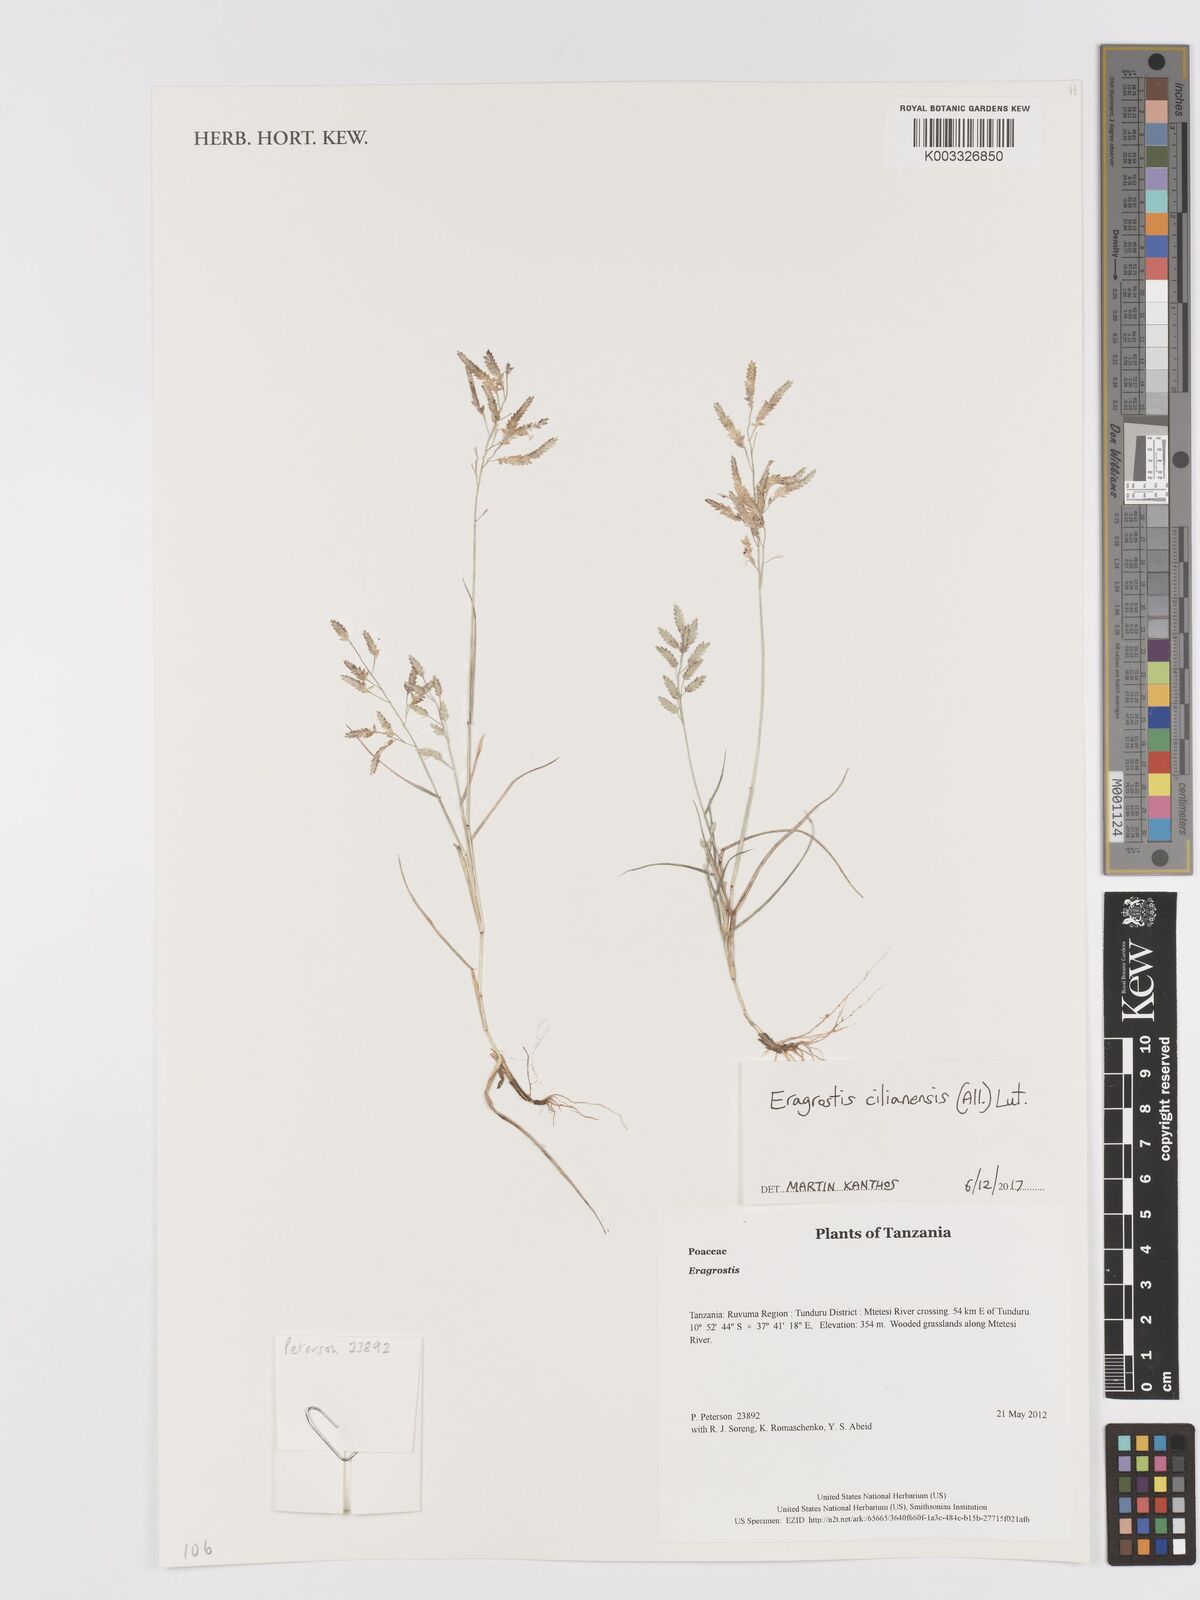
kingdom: Plantae
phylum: Tracheophyta
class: Liliopsida
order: Poales
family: Poaceae
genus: Eragrostis
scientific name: Eragrostis cilianensis
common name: Stinkgrass
